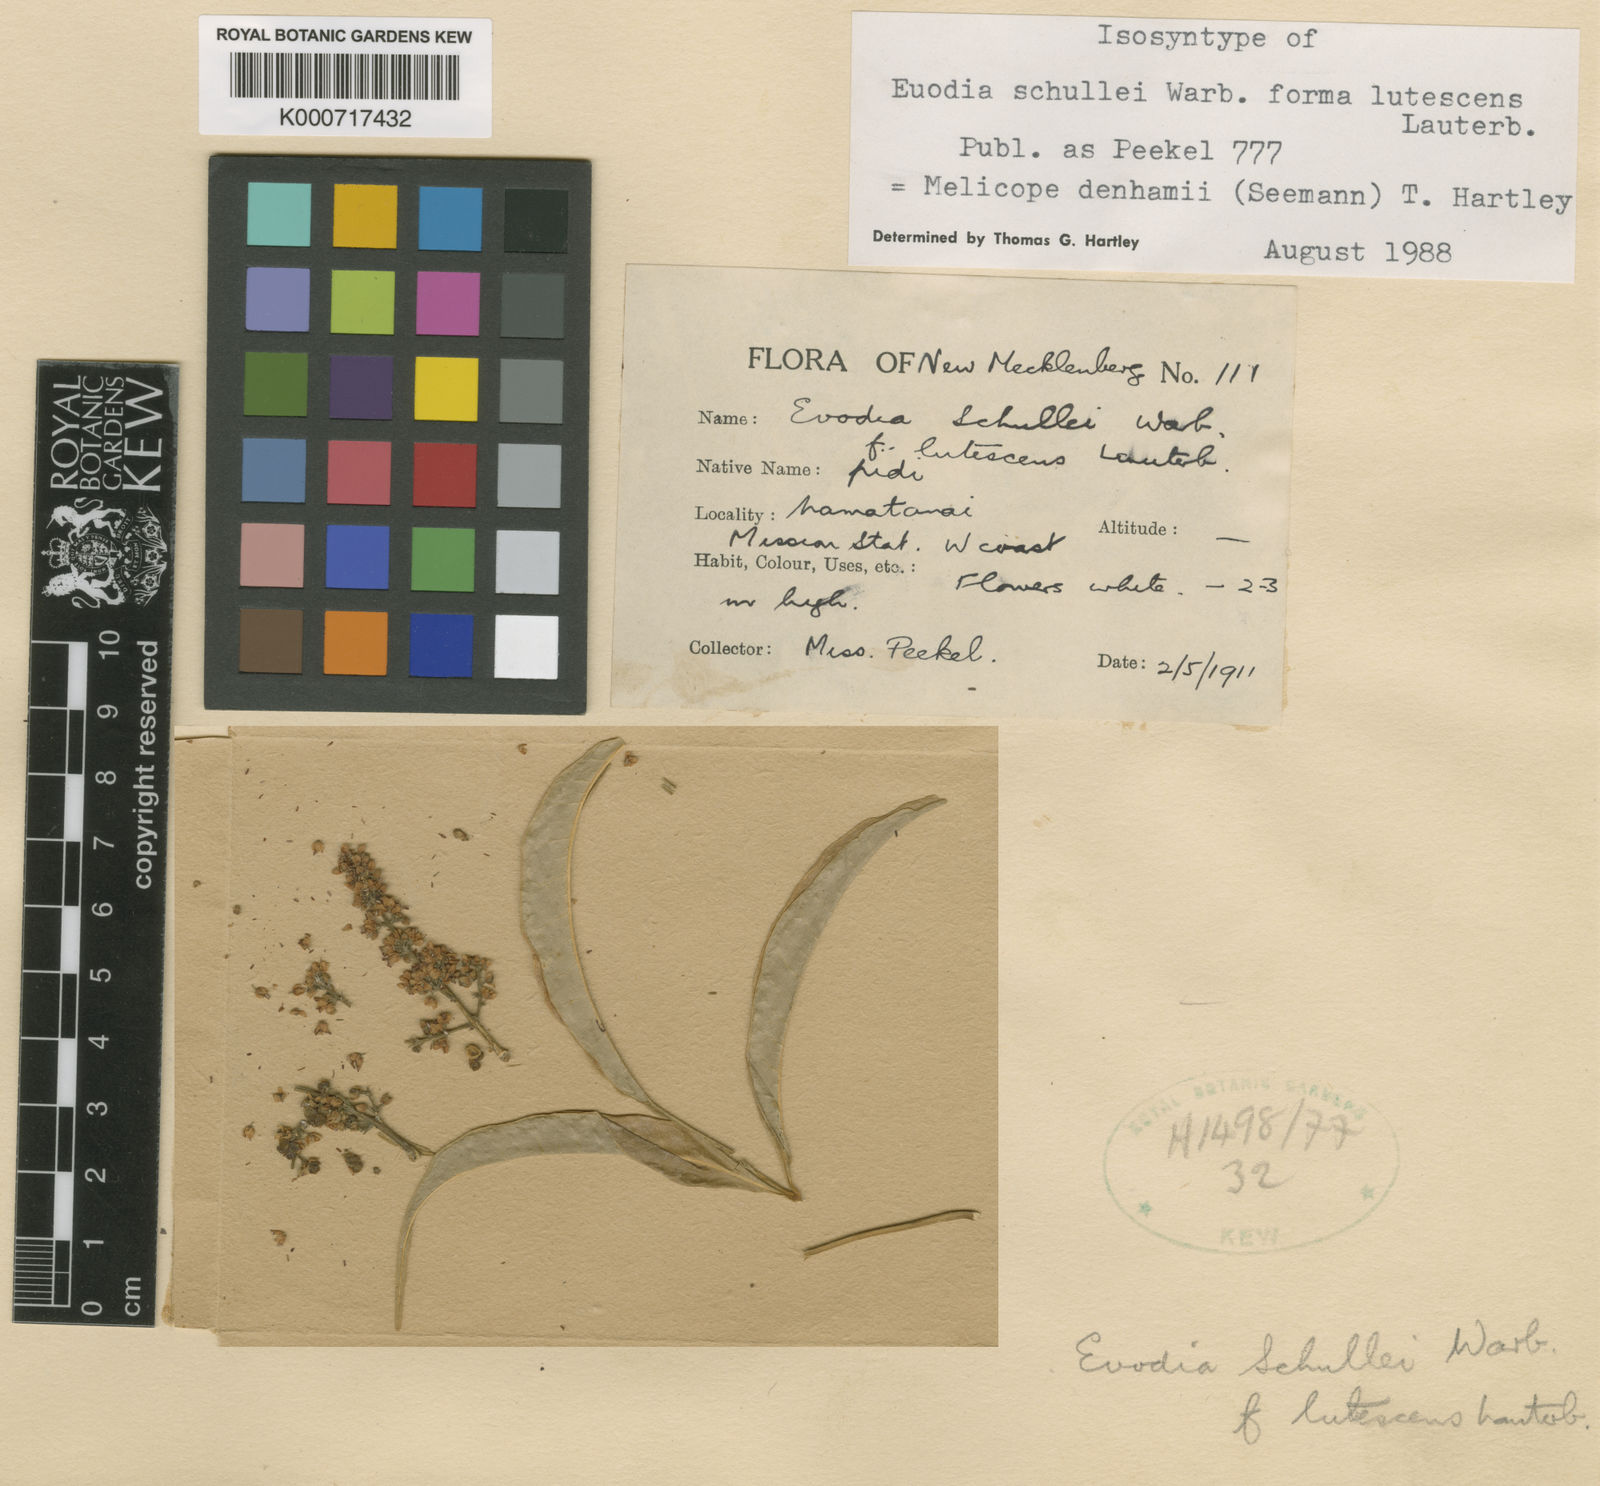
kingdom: Plantae
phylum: Tracheophyta
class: Magnoliopsida
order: Sapindales
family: Rutaceae
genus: Melicope
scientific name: Melicope denhamii
